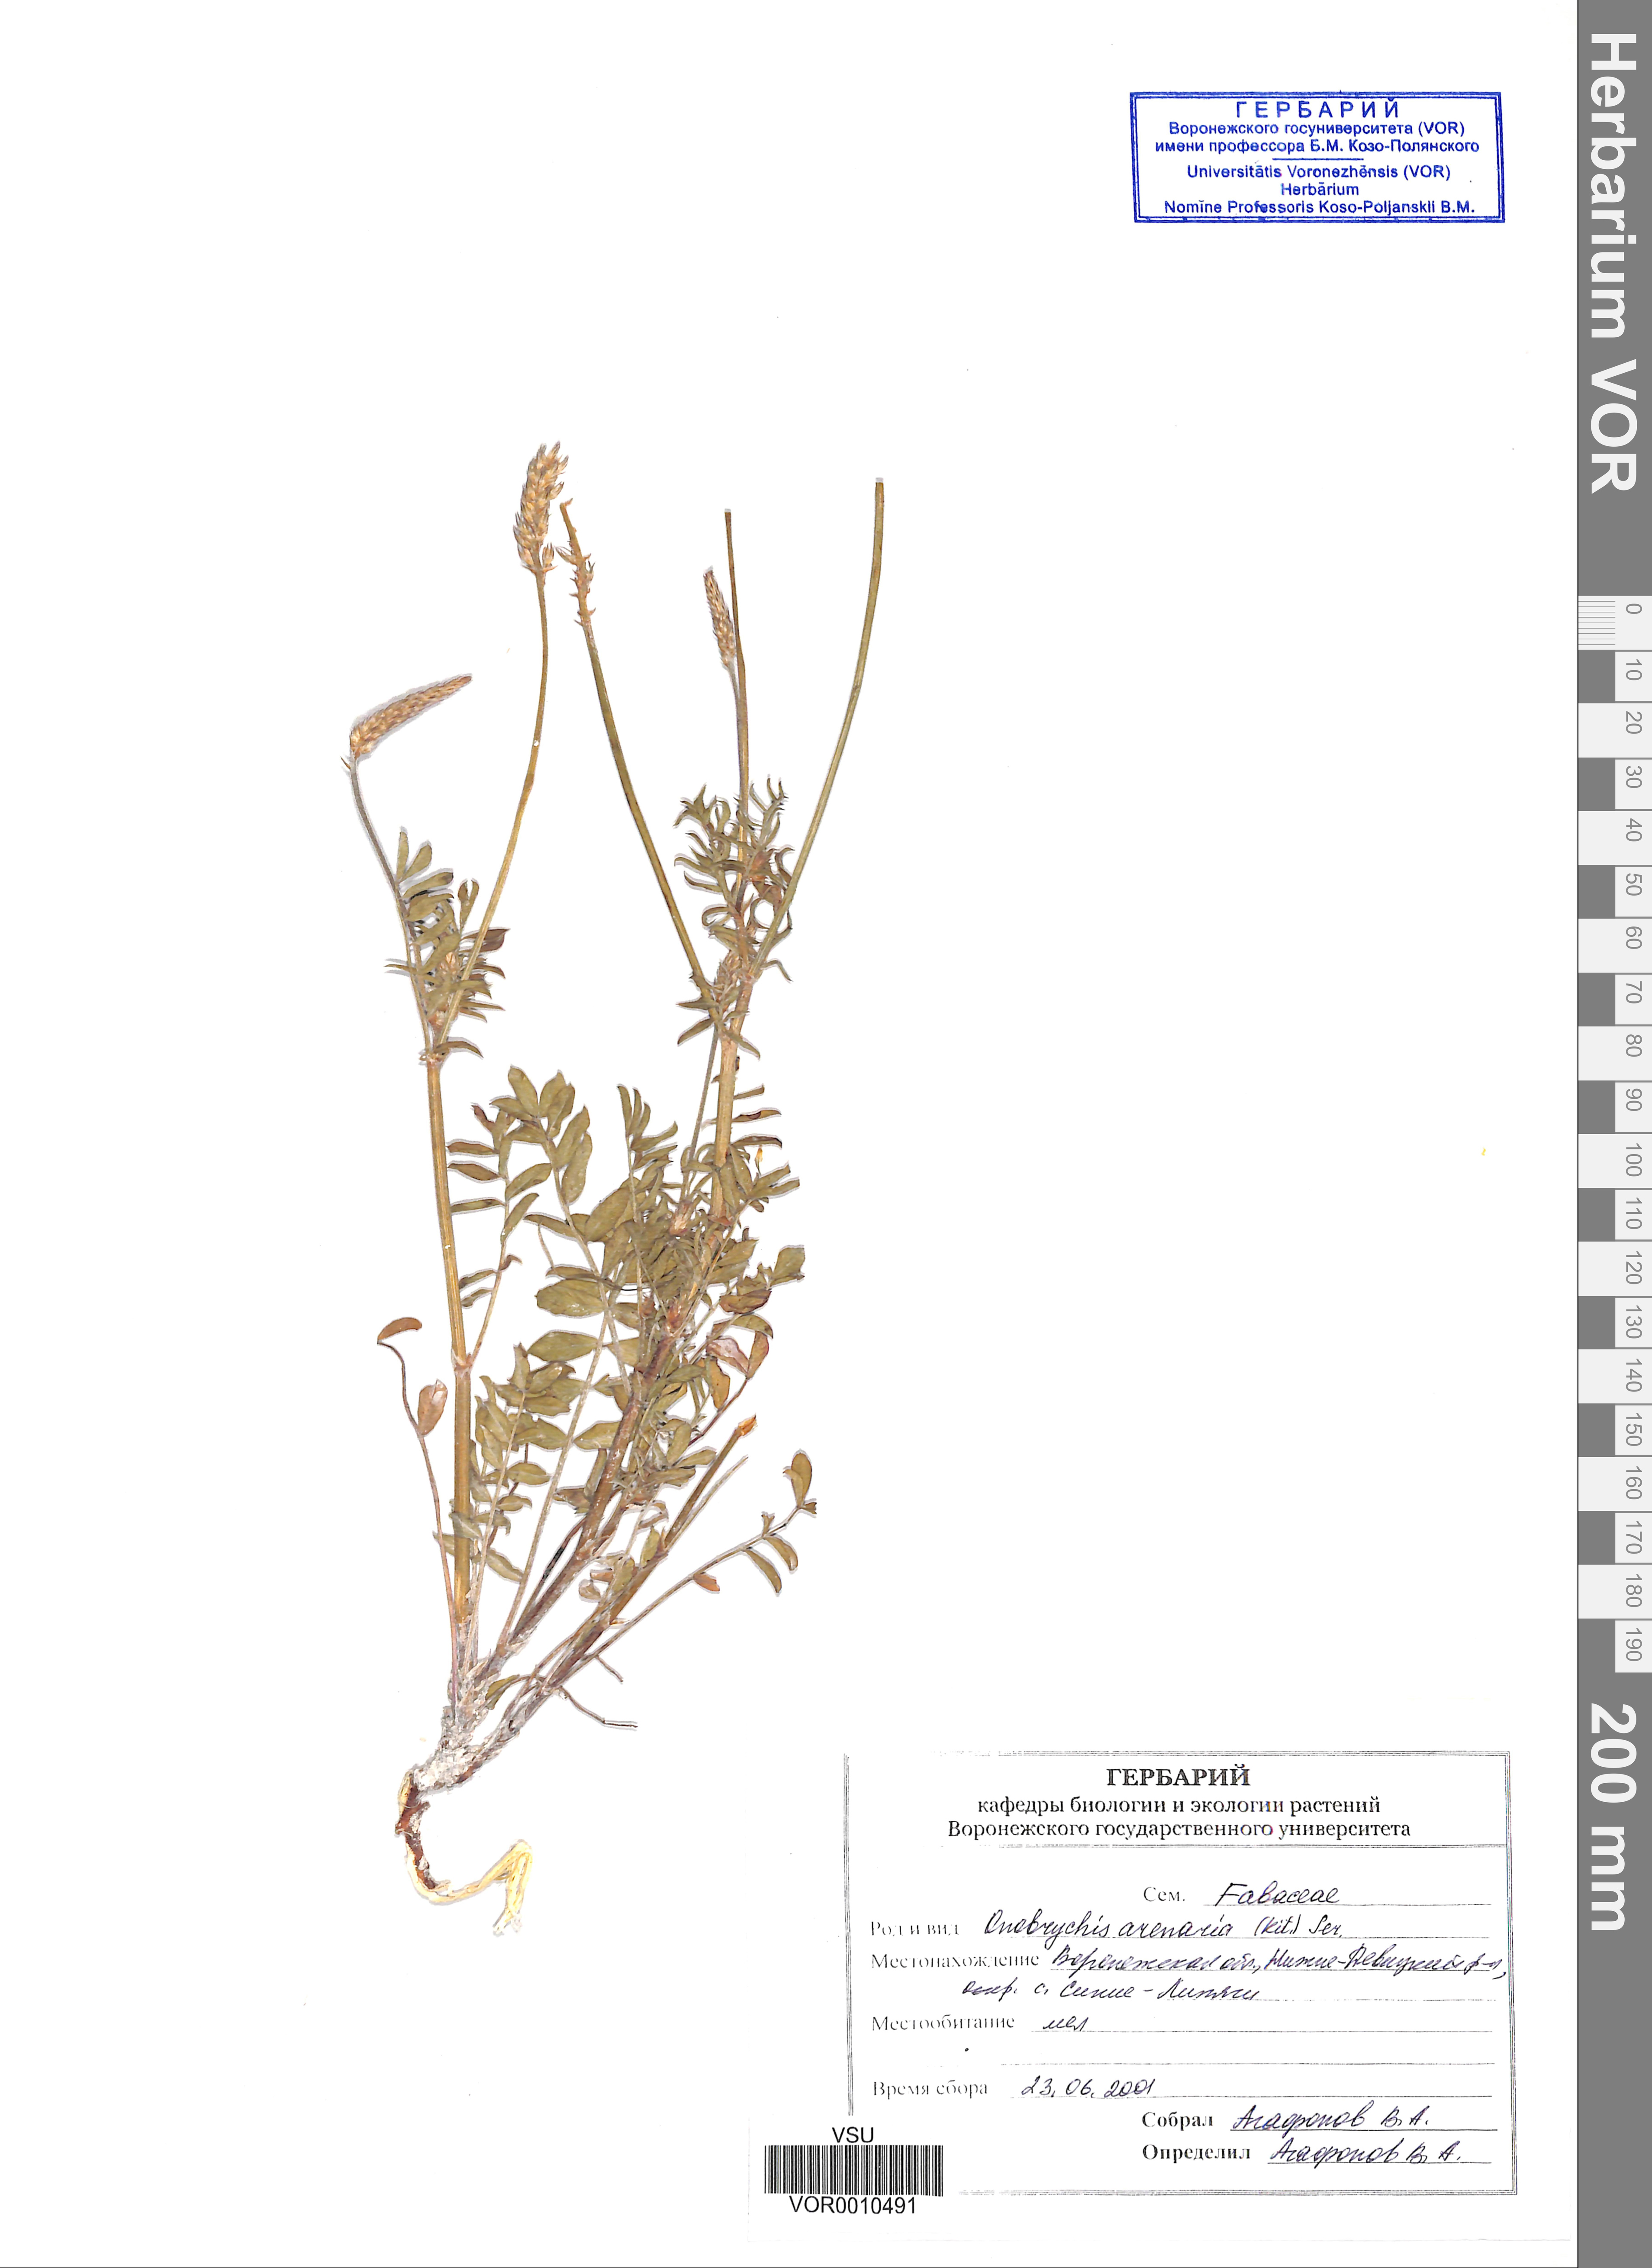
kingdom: Plantae
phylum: Tracheophyta
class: Magnoliopsida
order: Fabales
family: Fabaceae
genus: Onobrychis
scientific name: Onobrychis arenaria
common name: Sand esparcet
